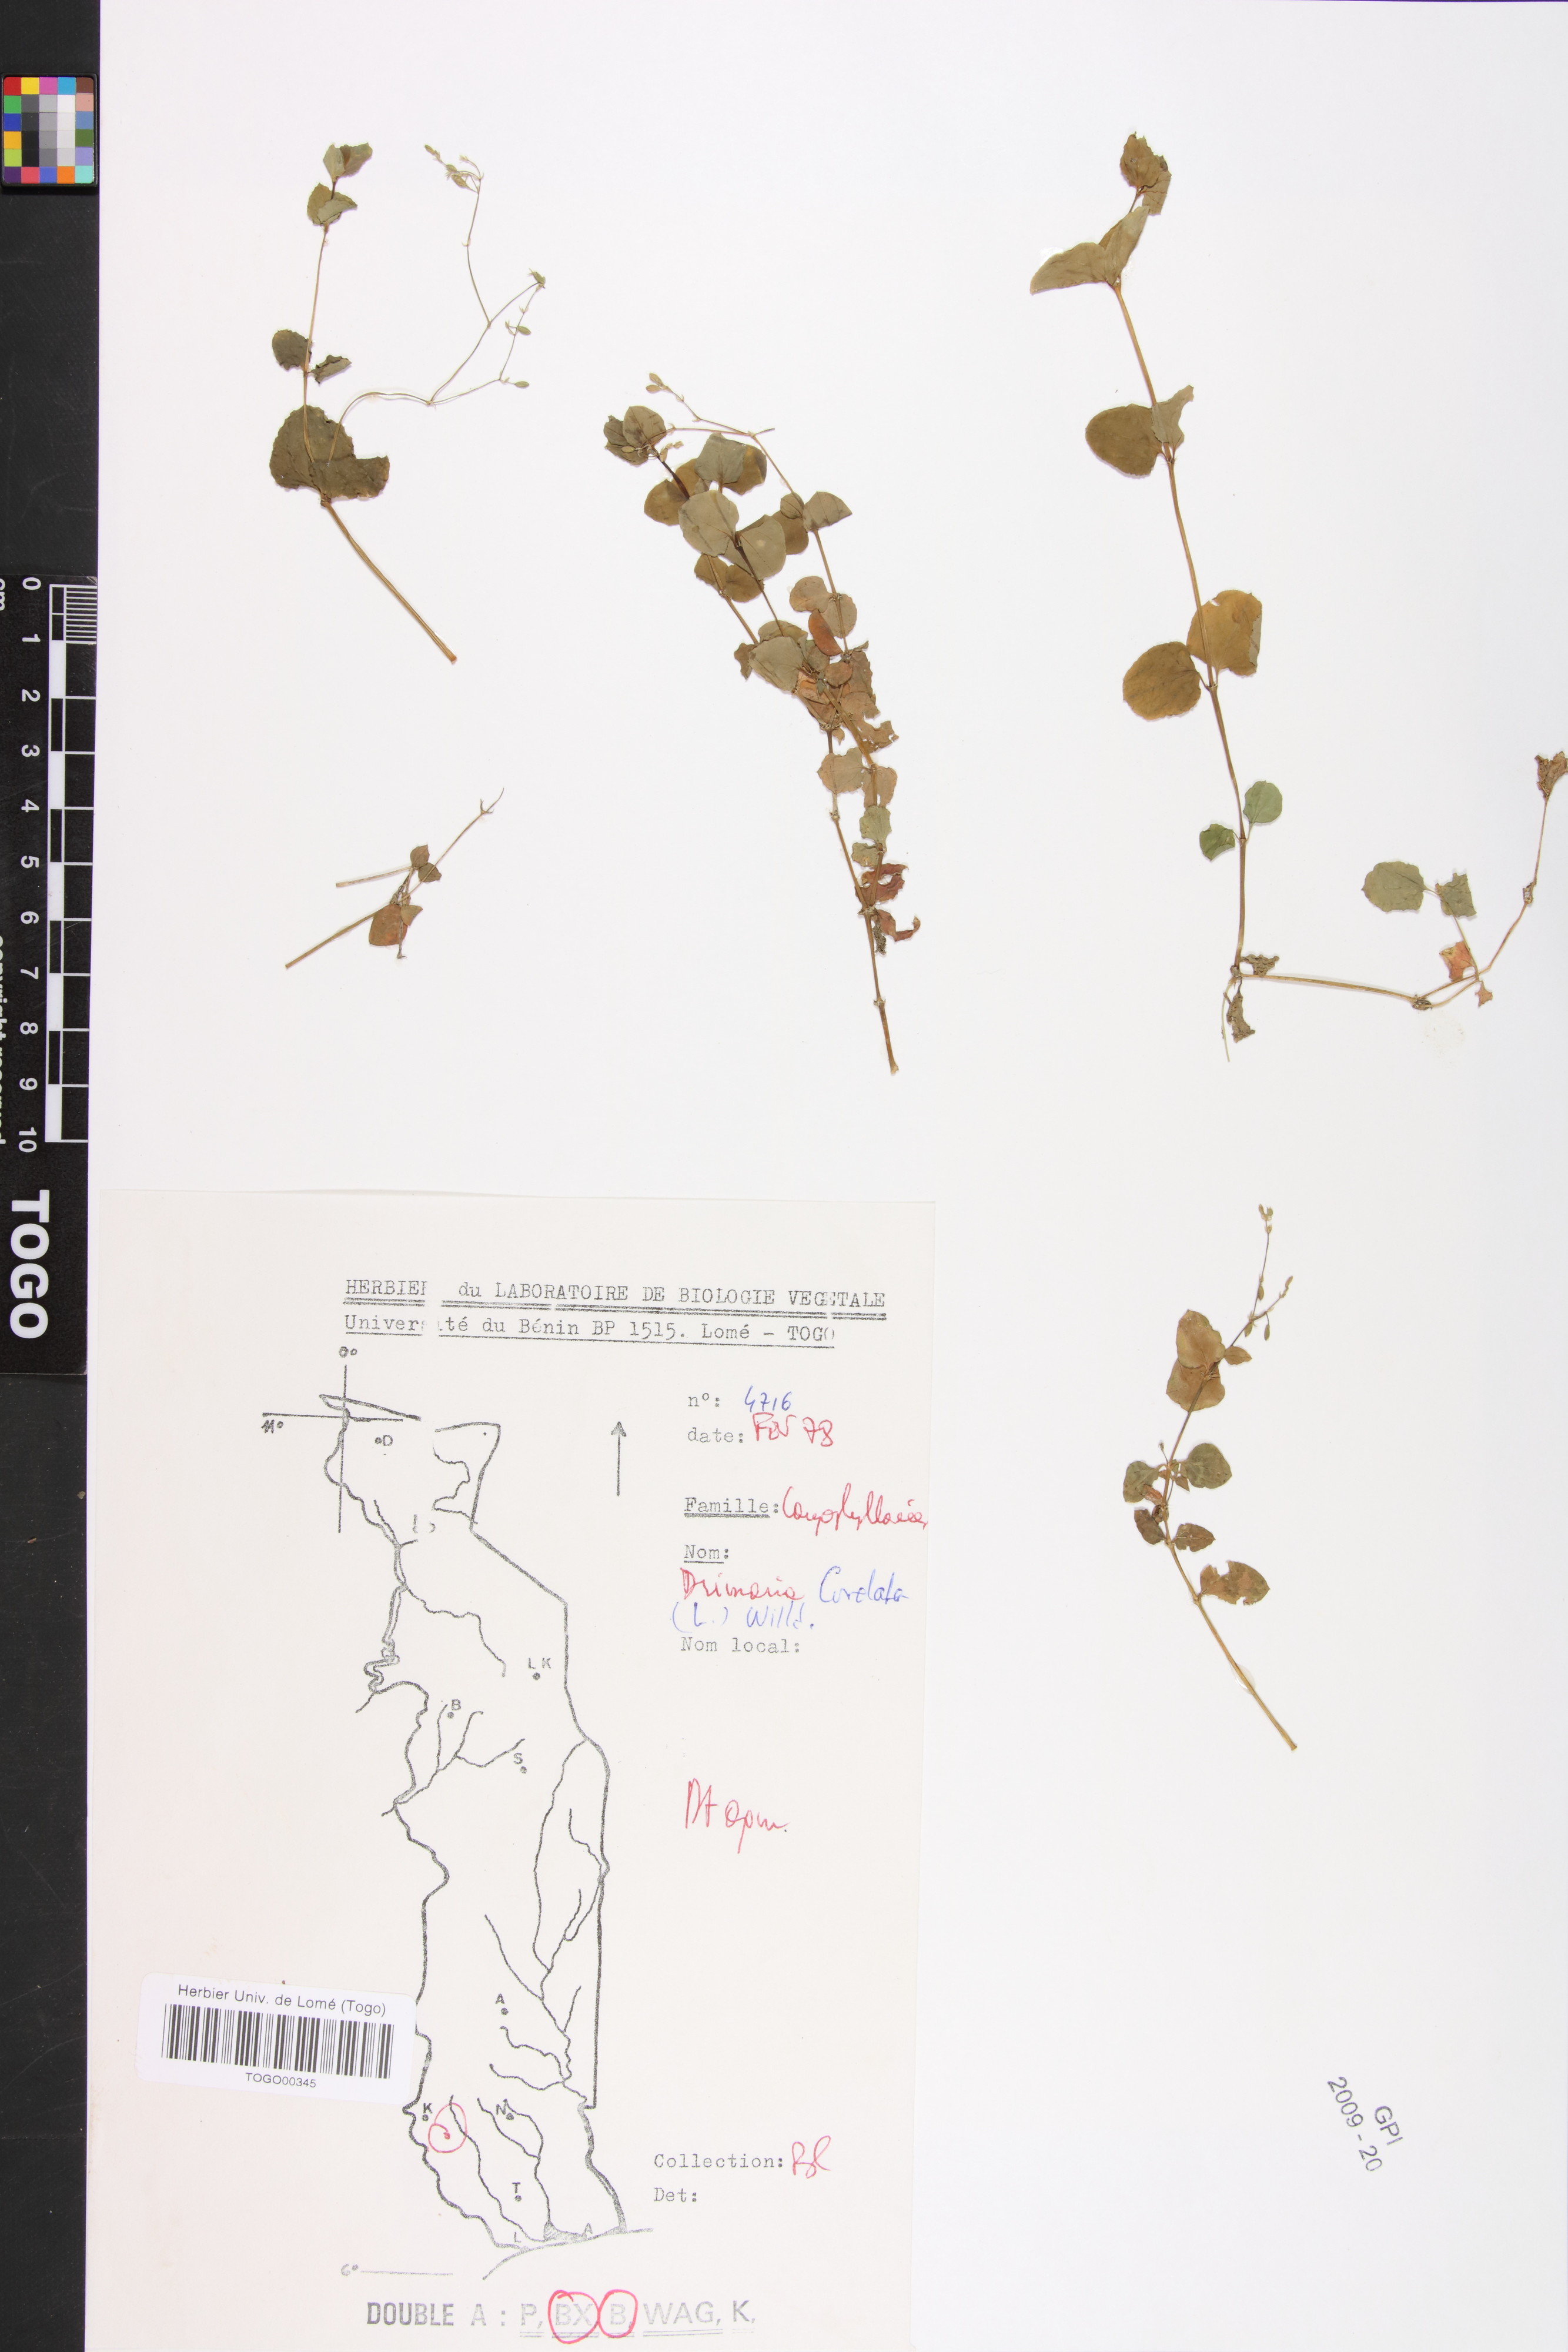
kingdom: Plantae
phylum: Tracheophyta
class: Magnoliopsida
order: Caryophyllales
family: Caryophyllaceae
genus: Drymaria
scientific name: Drymaria cordata
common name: Whitesnow
